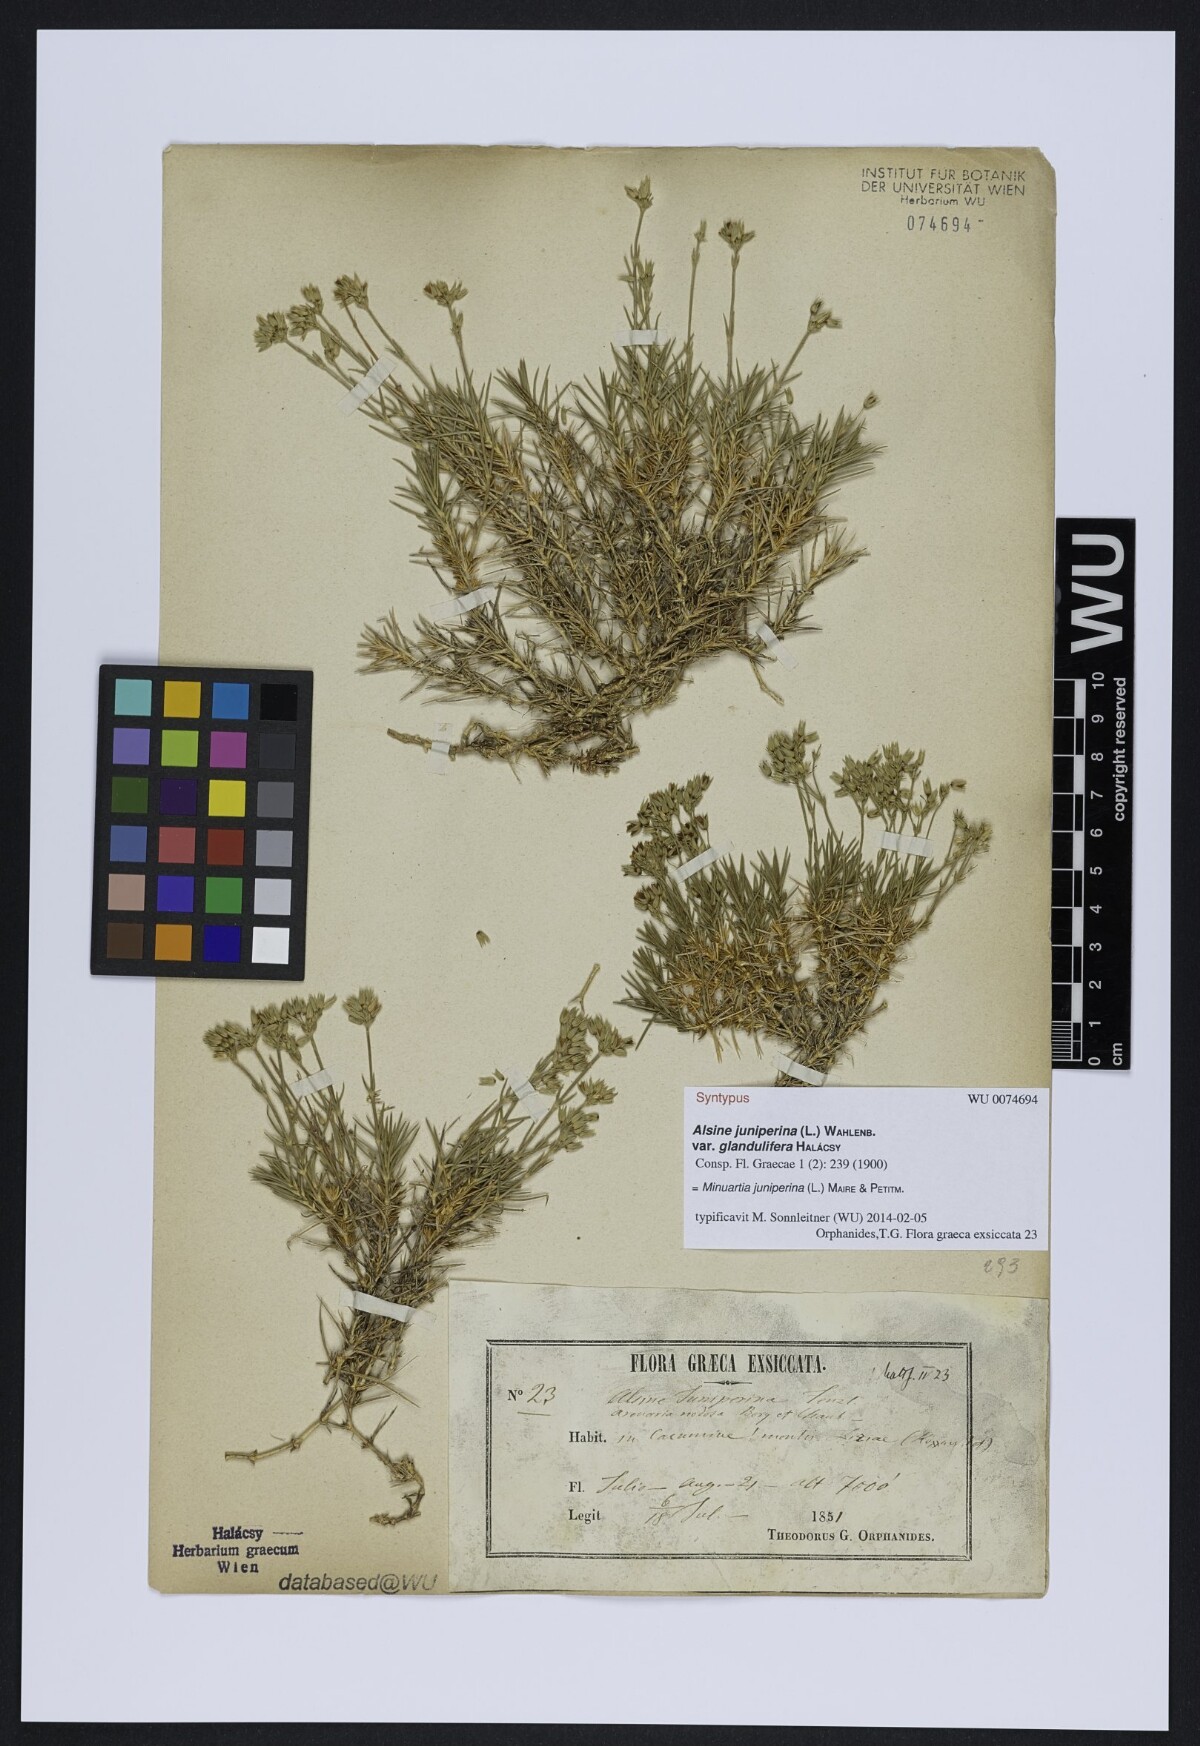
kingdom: Plantae
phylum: Tracheophyta
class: Magnoliopsida
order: Caryophyllales
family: Caryophyllaceae
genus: Sabulina
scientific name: Sabulina juniperina
